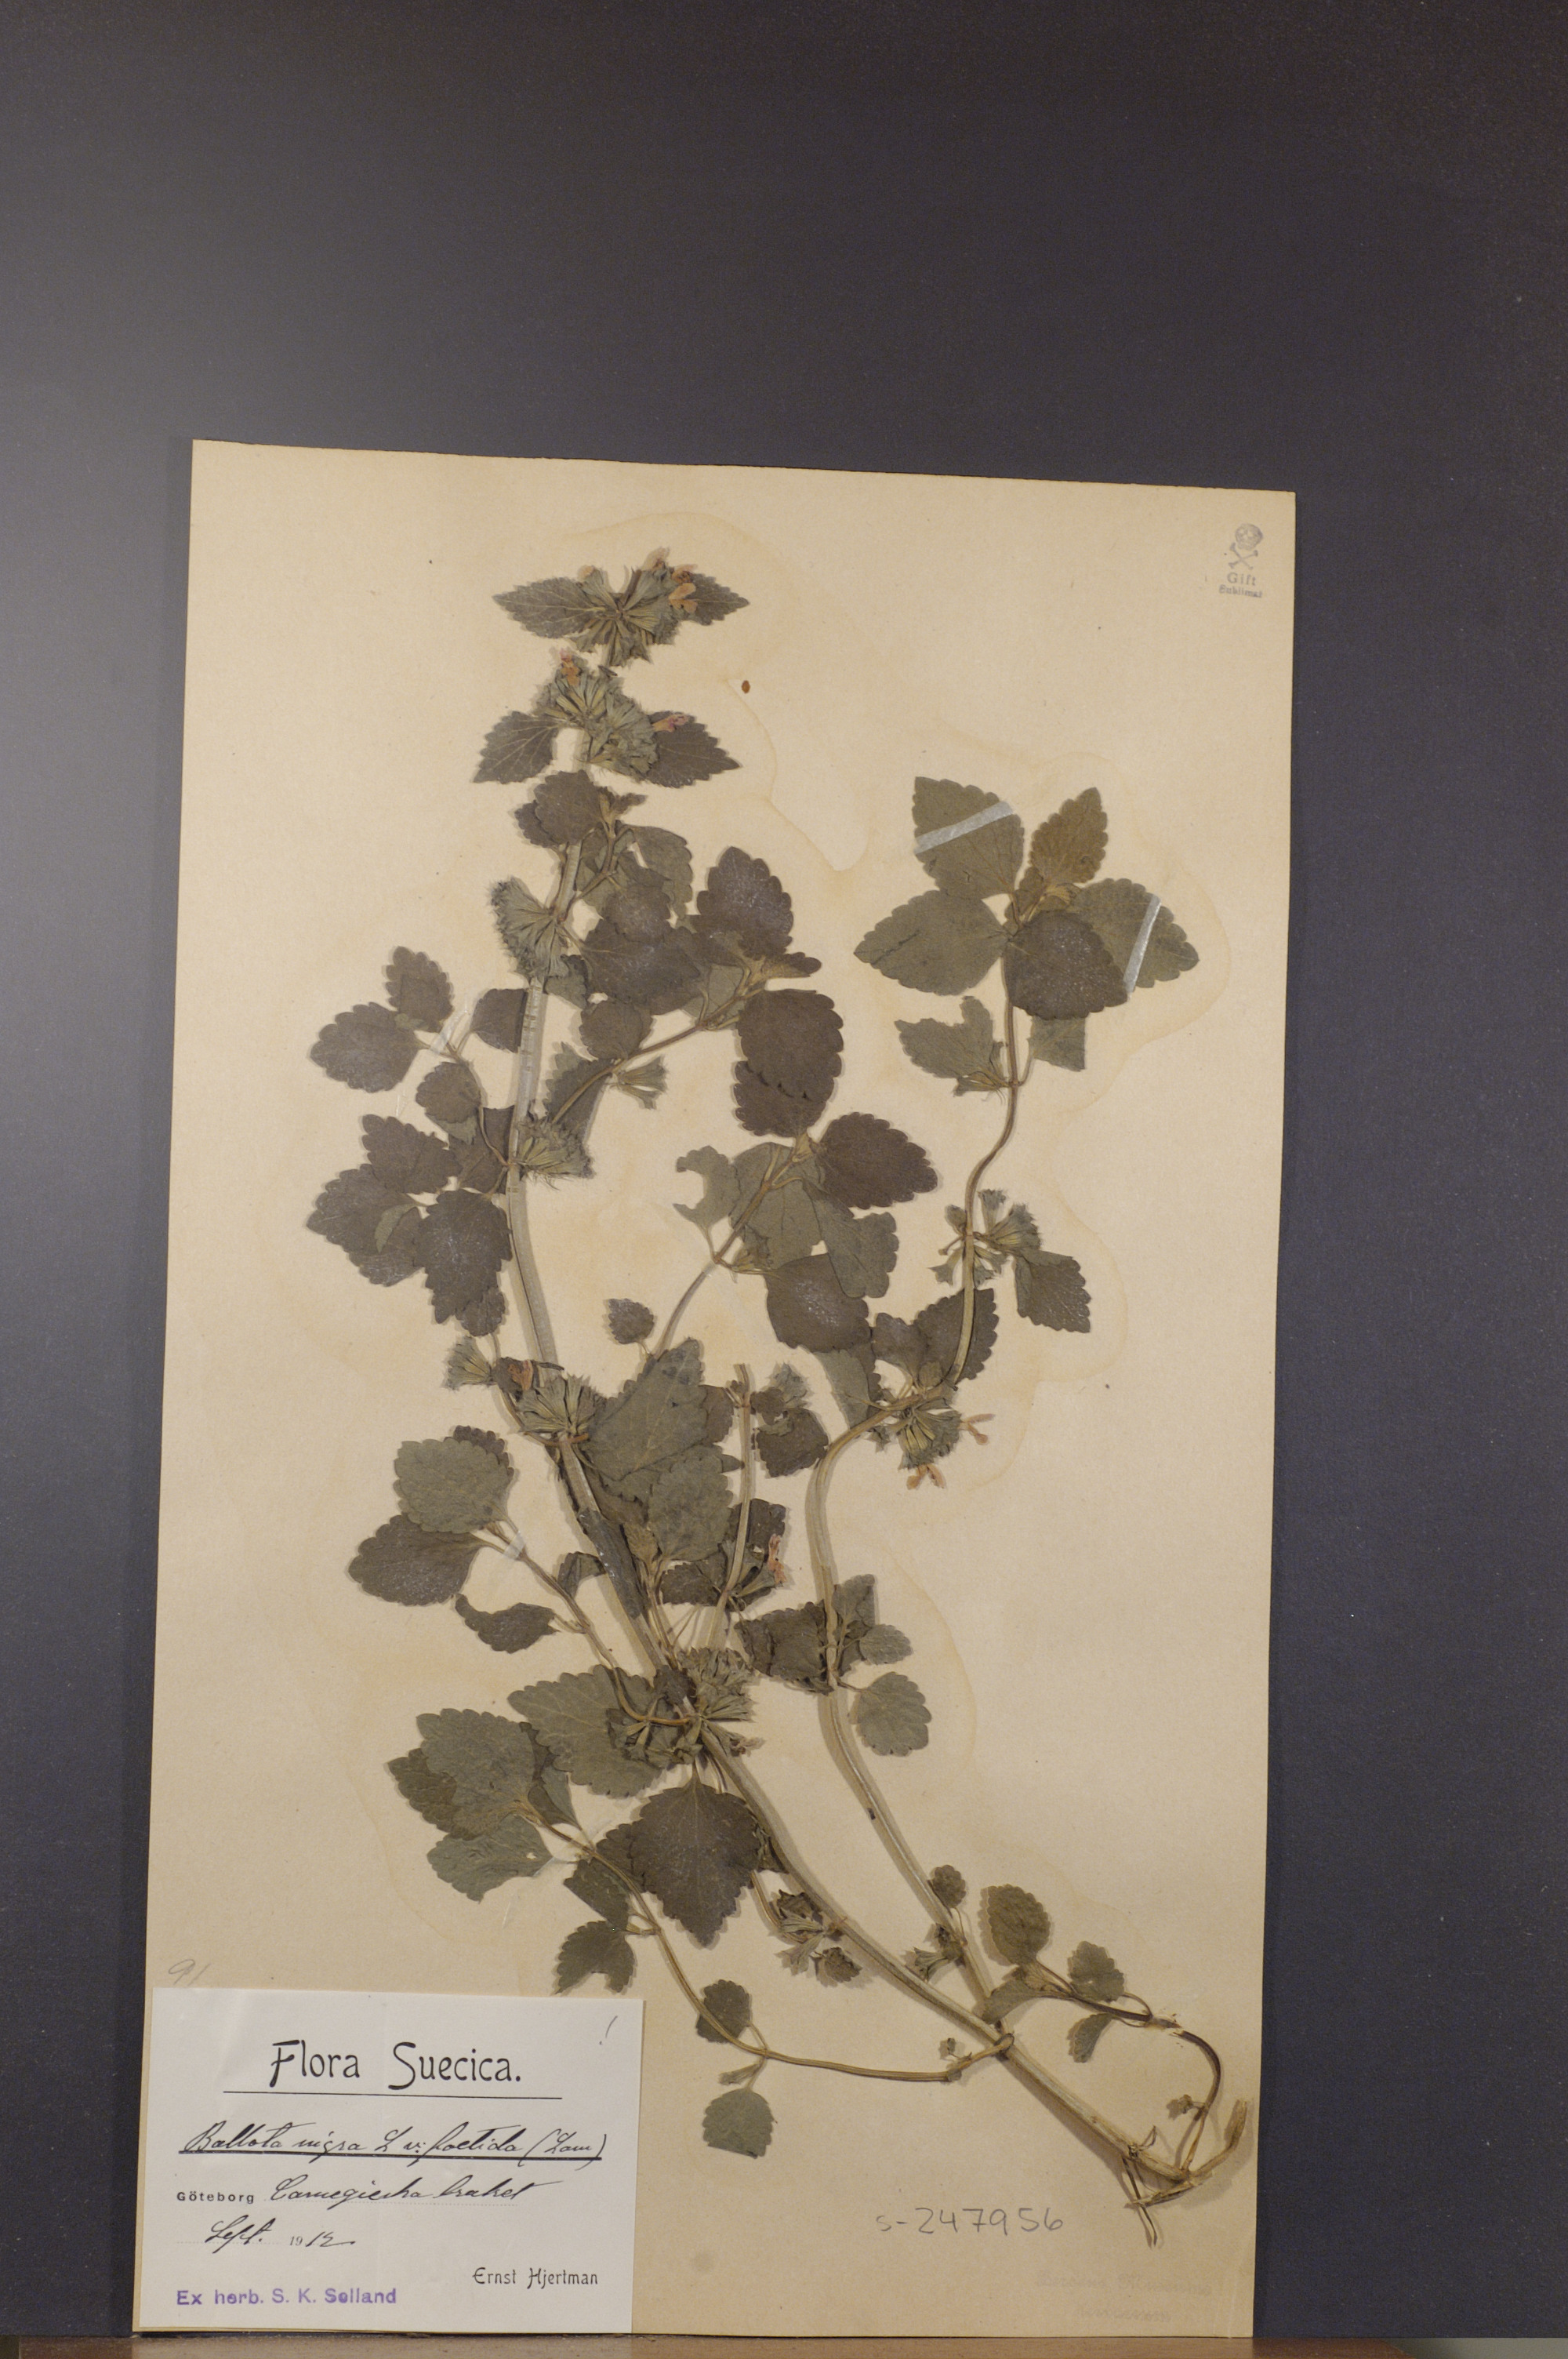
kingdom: Plantae
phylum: Tracheophyta
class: Magnoliopsida
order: Lamiales
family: Lamiaceae
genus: Ballota
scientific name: Ballota nigra
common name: Black horehound
